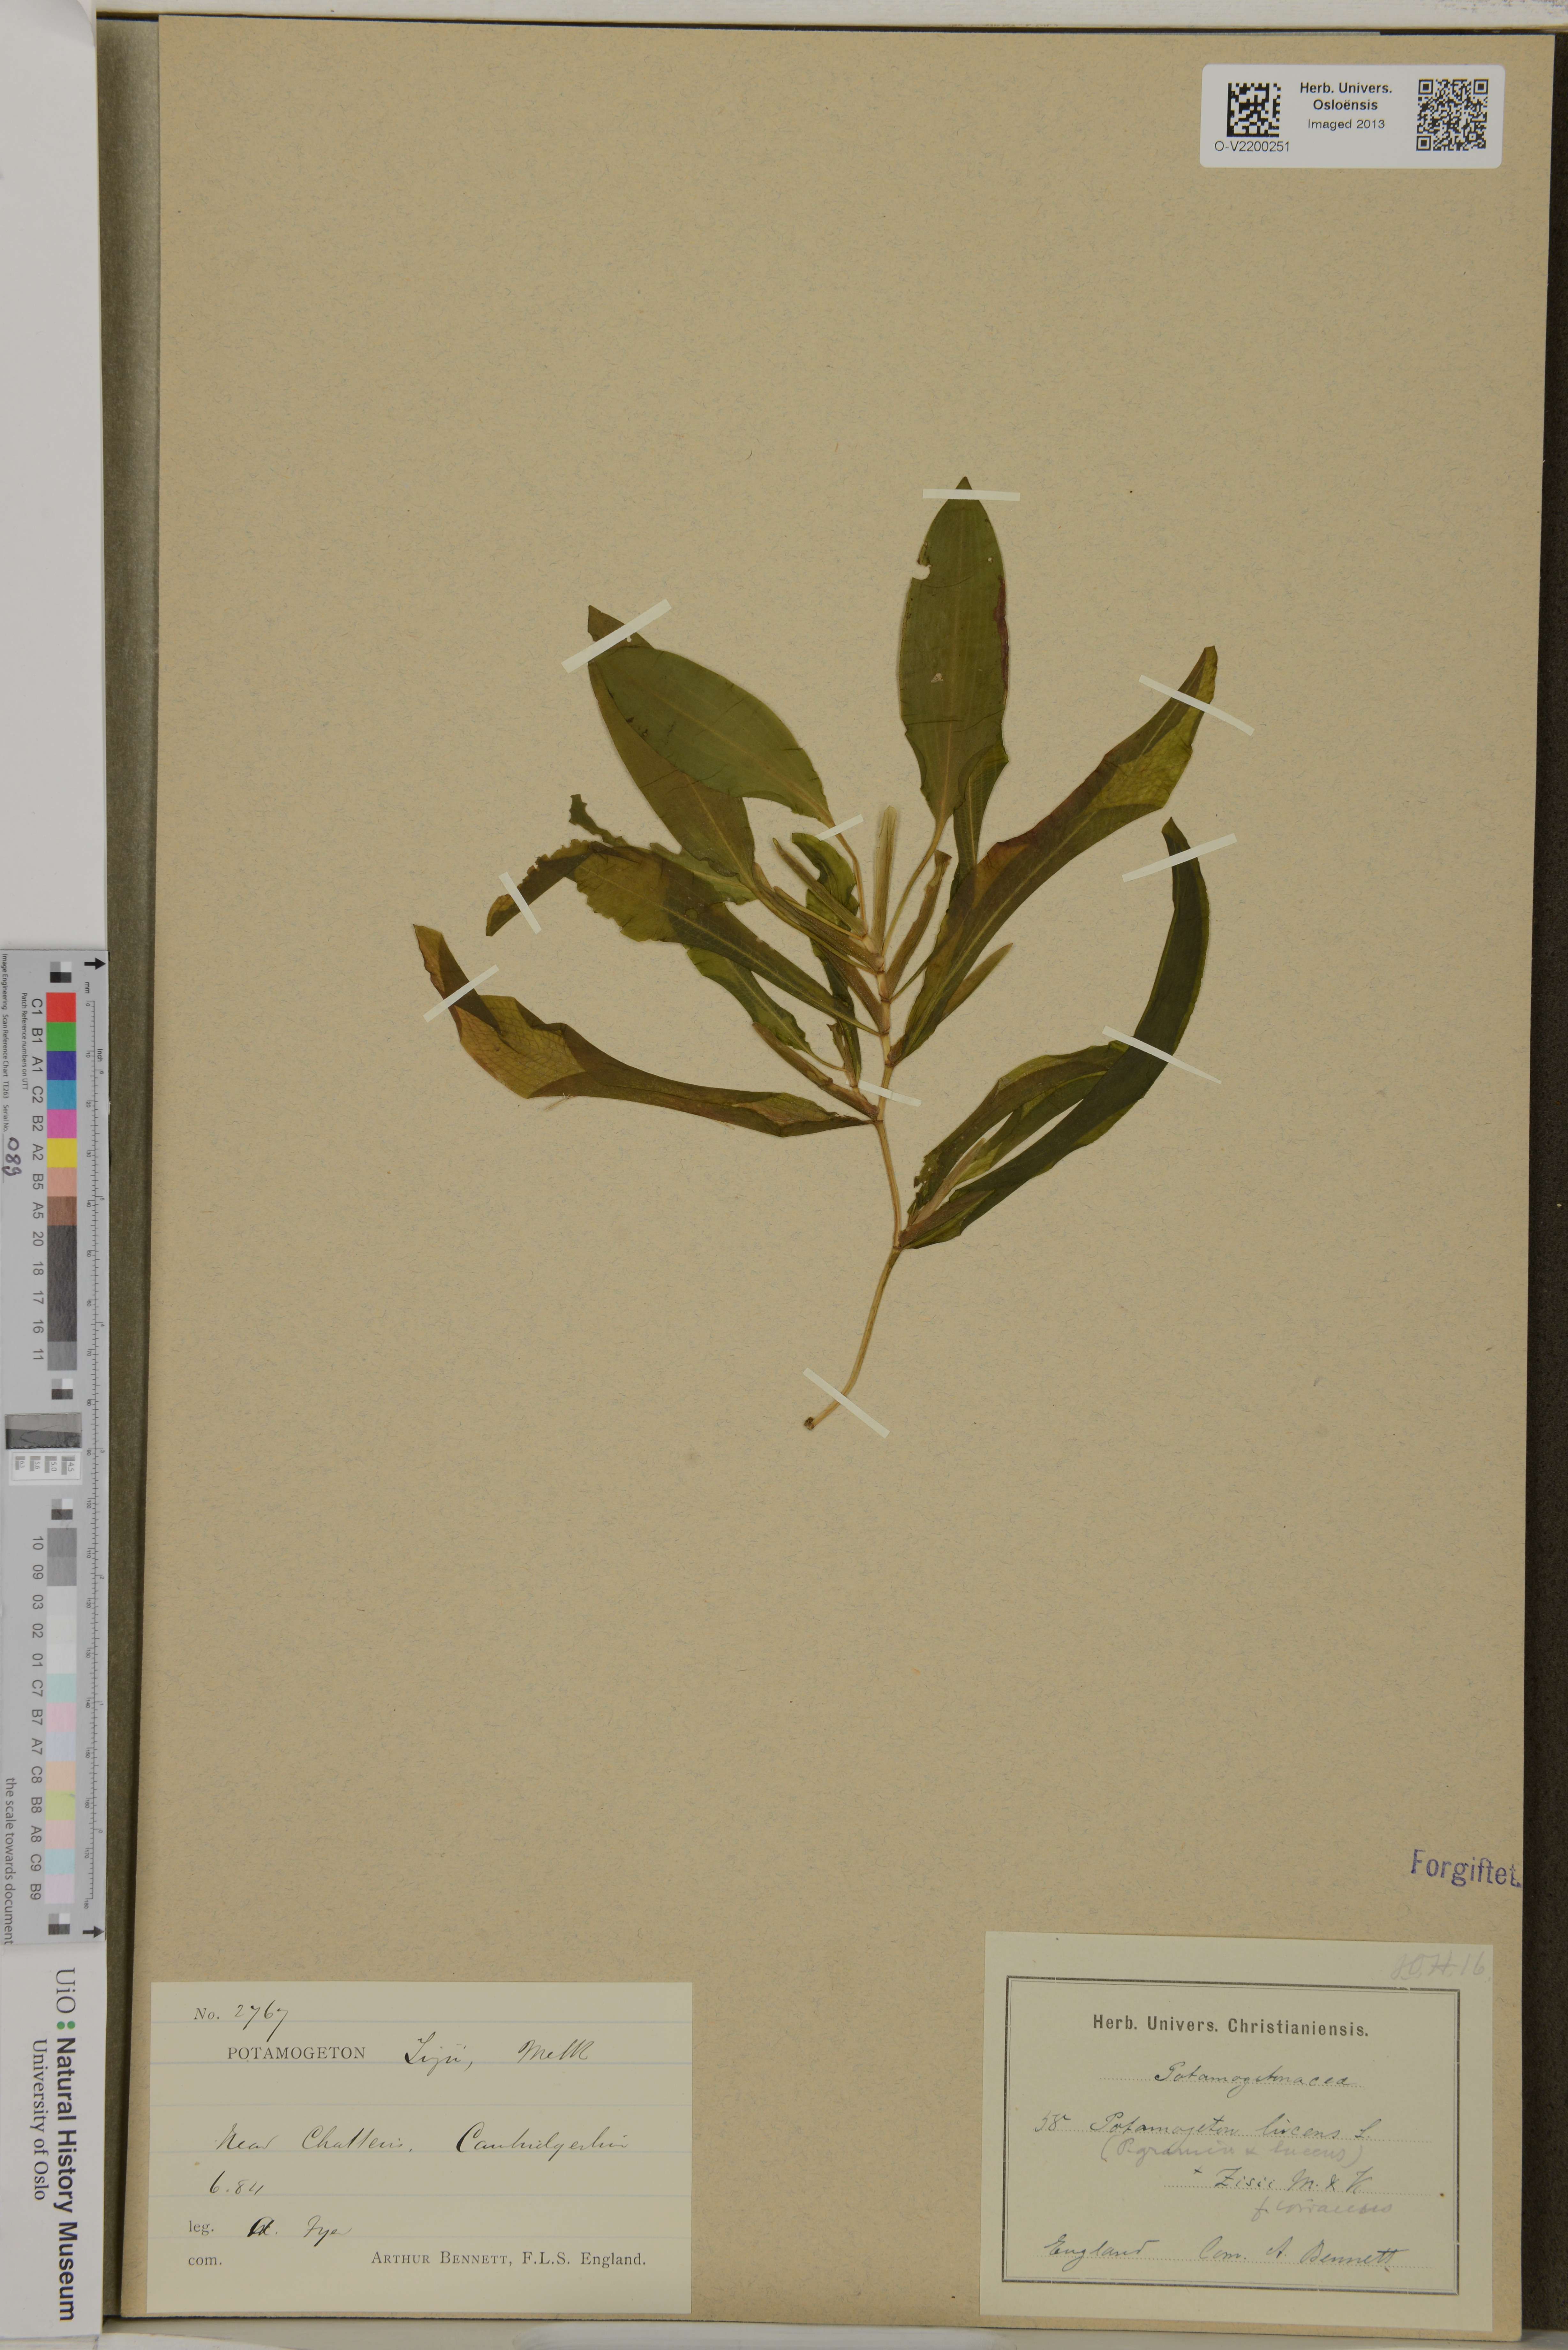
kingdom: Plantae
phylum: Tracheophyta
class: Liliopsida
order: Alismatales
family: Potamogetonaceae
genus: Potamogeton
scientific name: Potamogeton lucens
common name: Shining pondweed
